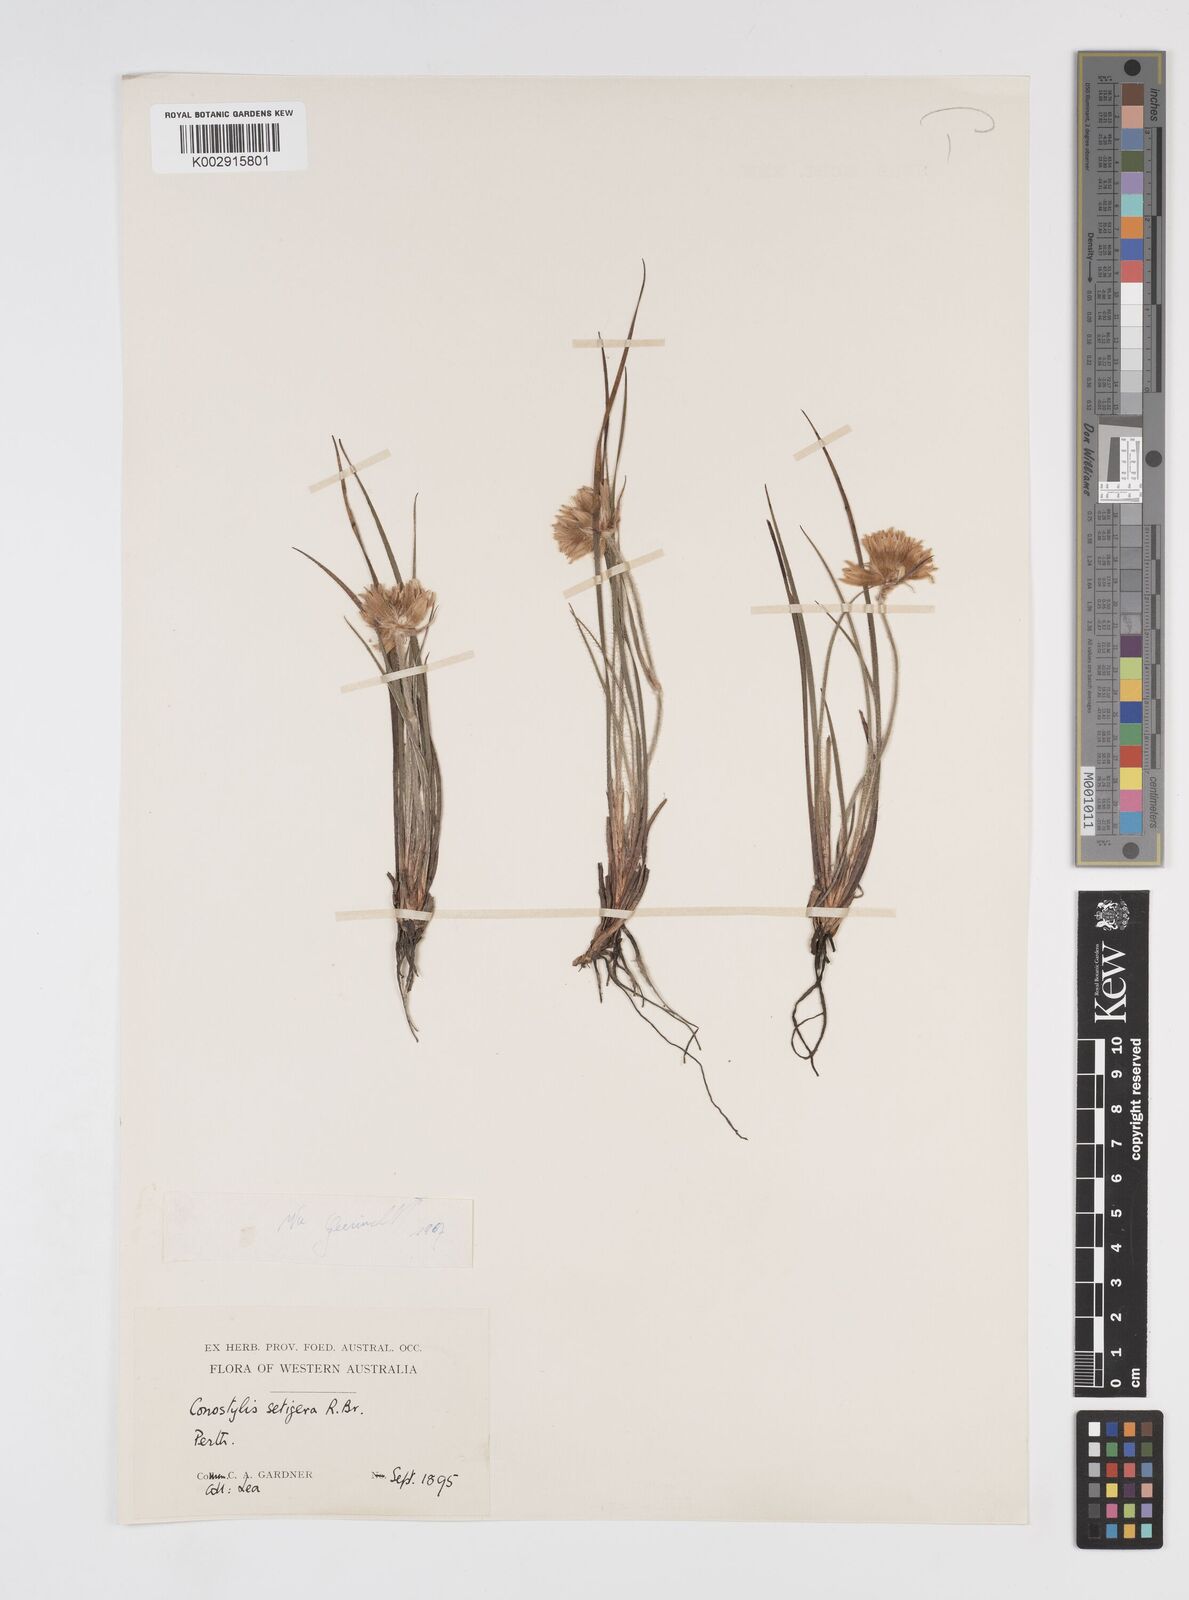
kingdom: Plantae
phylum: Tracheophyta
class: Liliopsida
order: Commelinales
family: Haemodoraceae
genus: Conostylis
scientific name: Conostylis setigera
